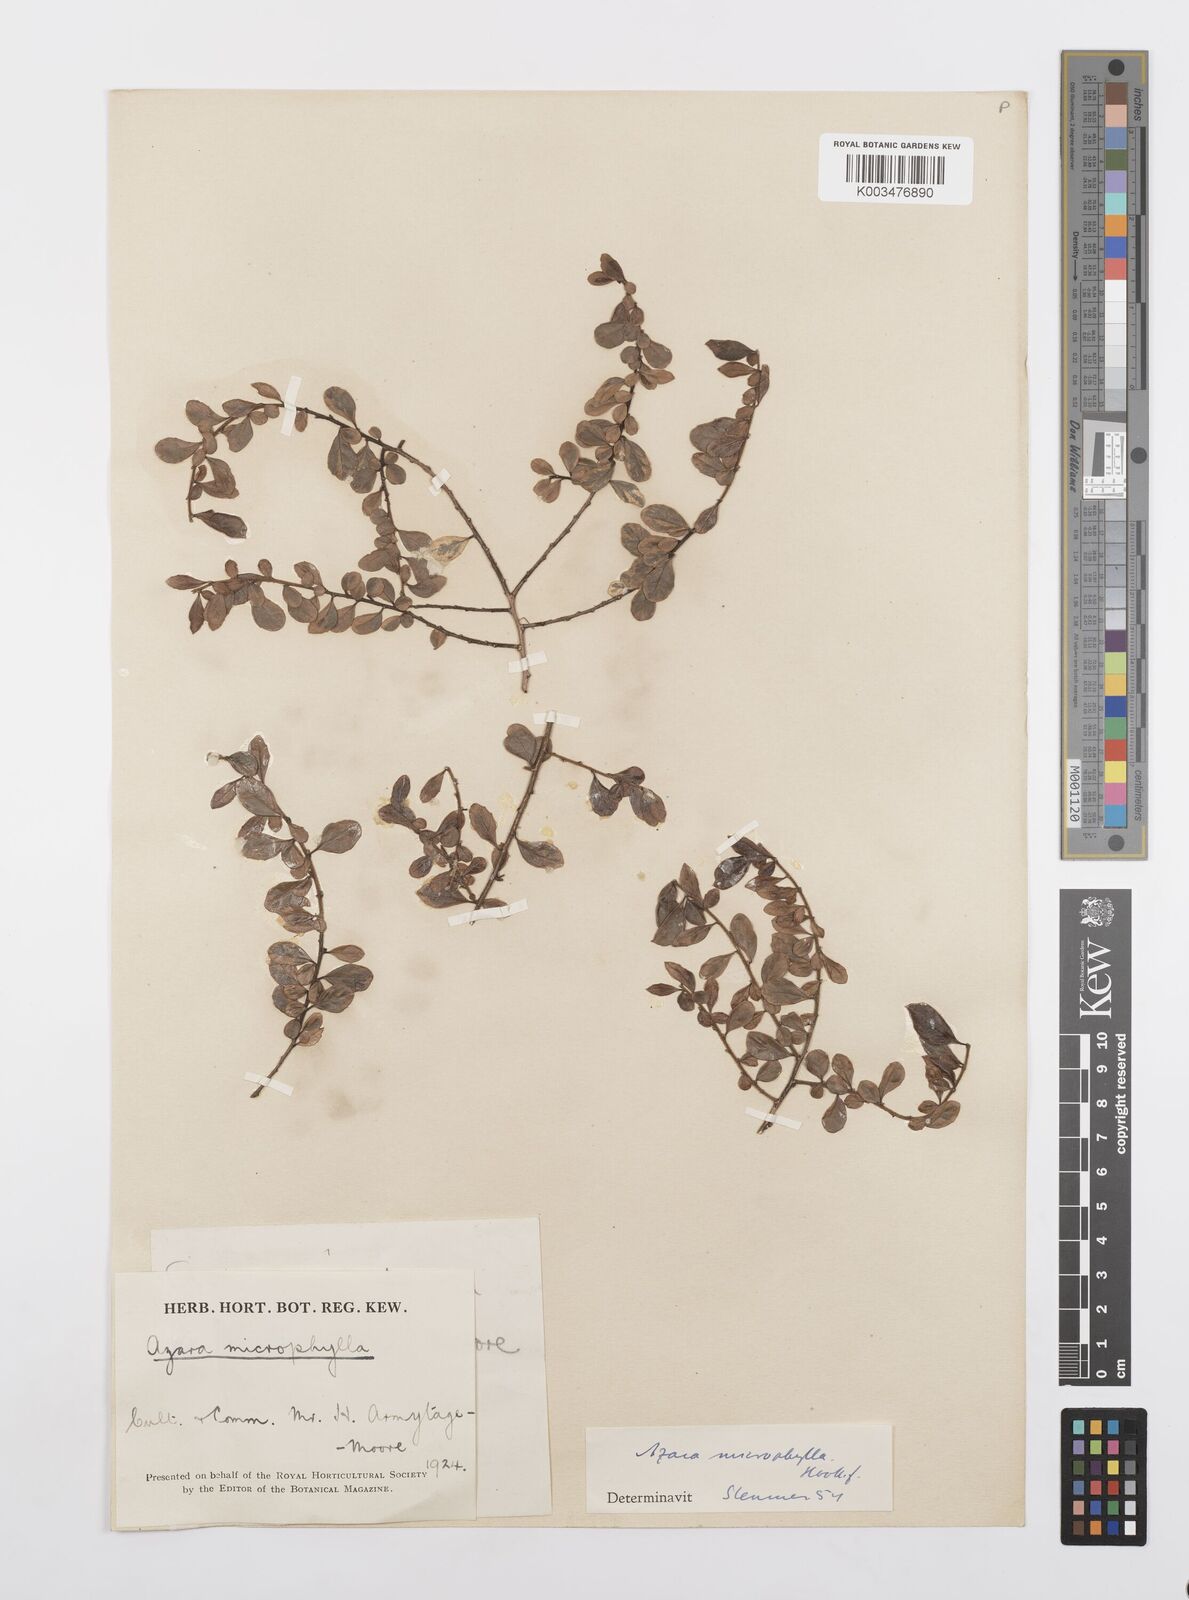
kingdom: Plantae
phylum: Tracheophyta
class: Magnoliopsida
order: Malpighiales
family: Salicaceae
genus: Azara
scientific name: Azara microphylla
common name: Box-leaf azara
